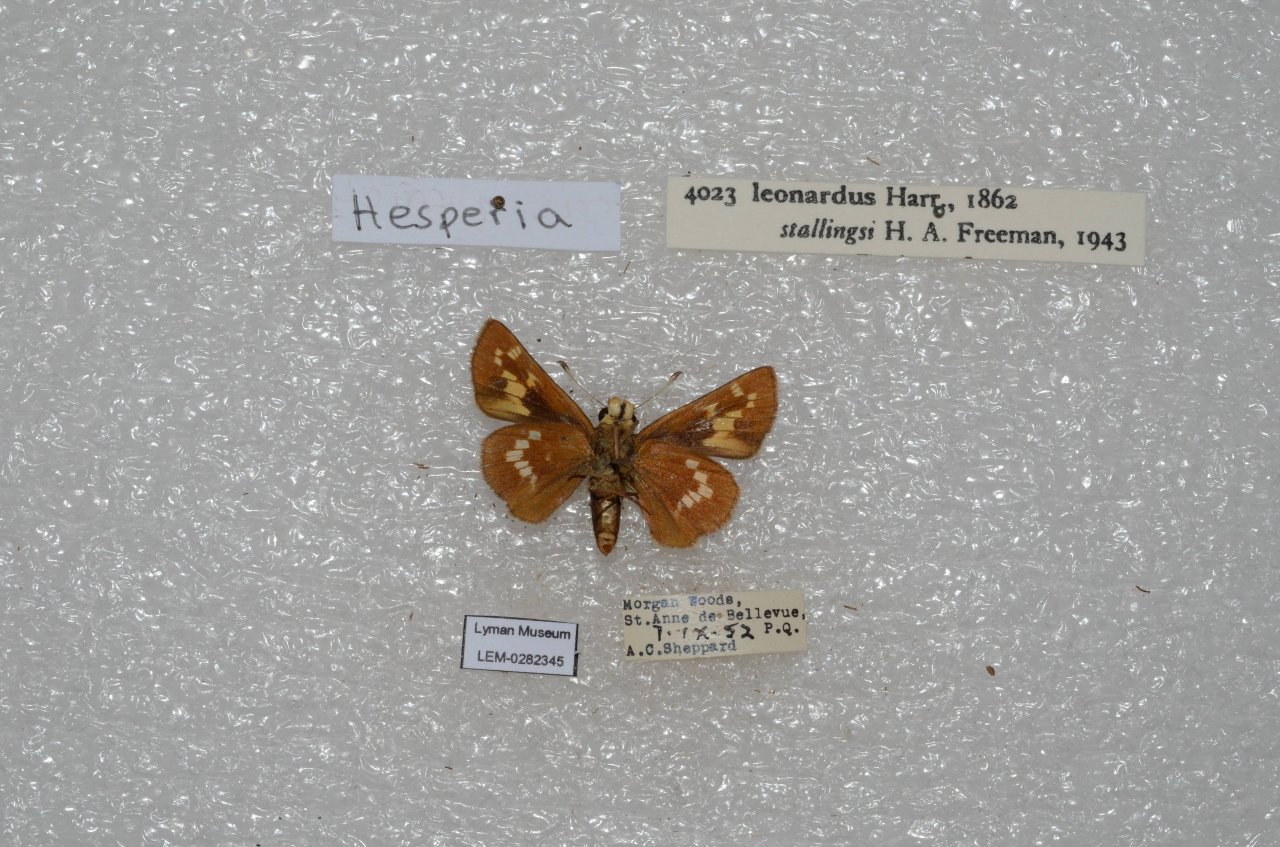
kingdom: Animalia
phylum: Arthropoda
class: Insecta
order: Lepidoptera
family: Hesperiidae
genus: Hesperia
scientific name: Hesperia leonardus
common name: Leonard's Skipper
